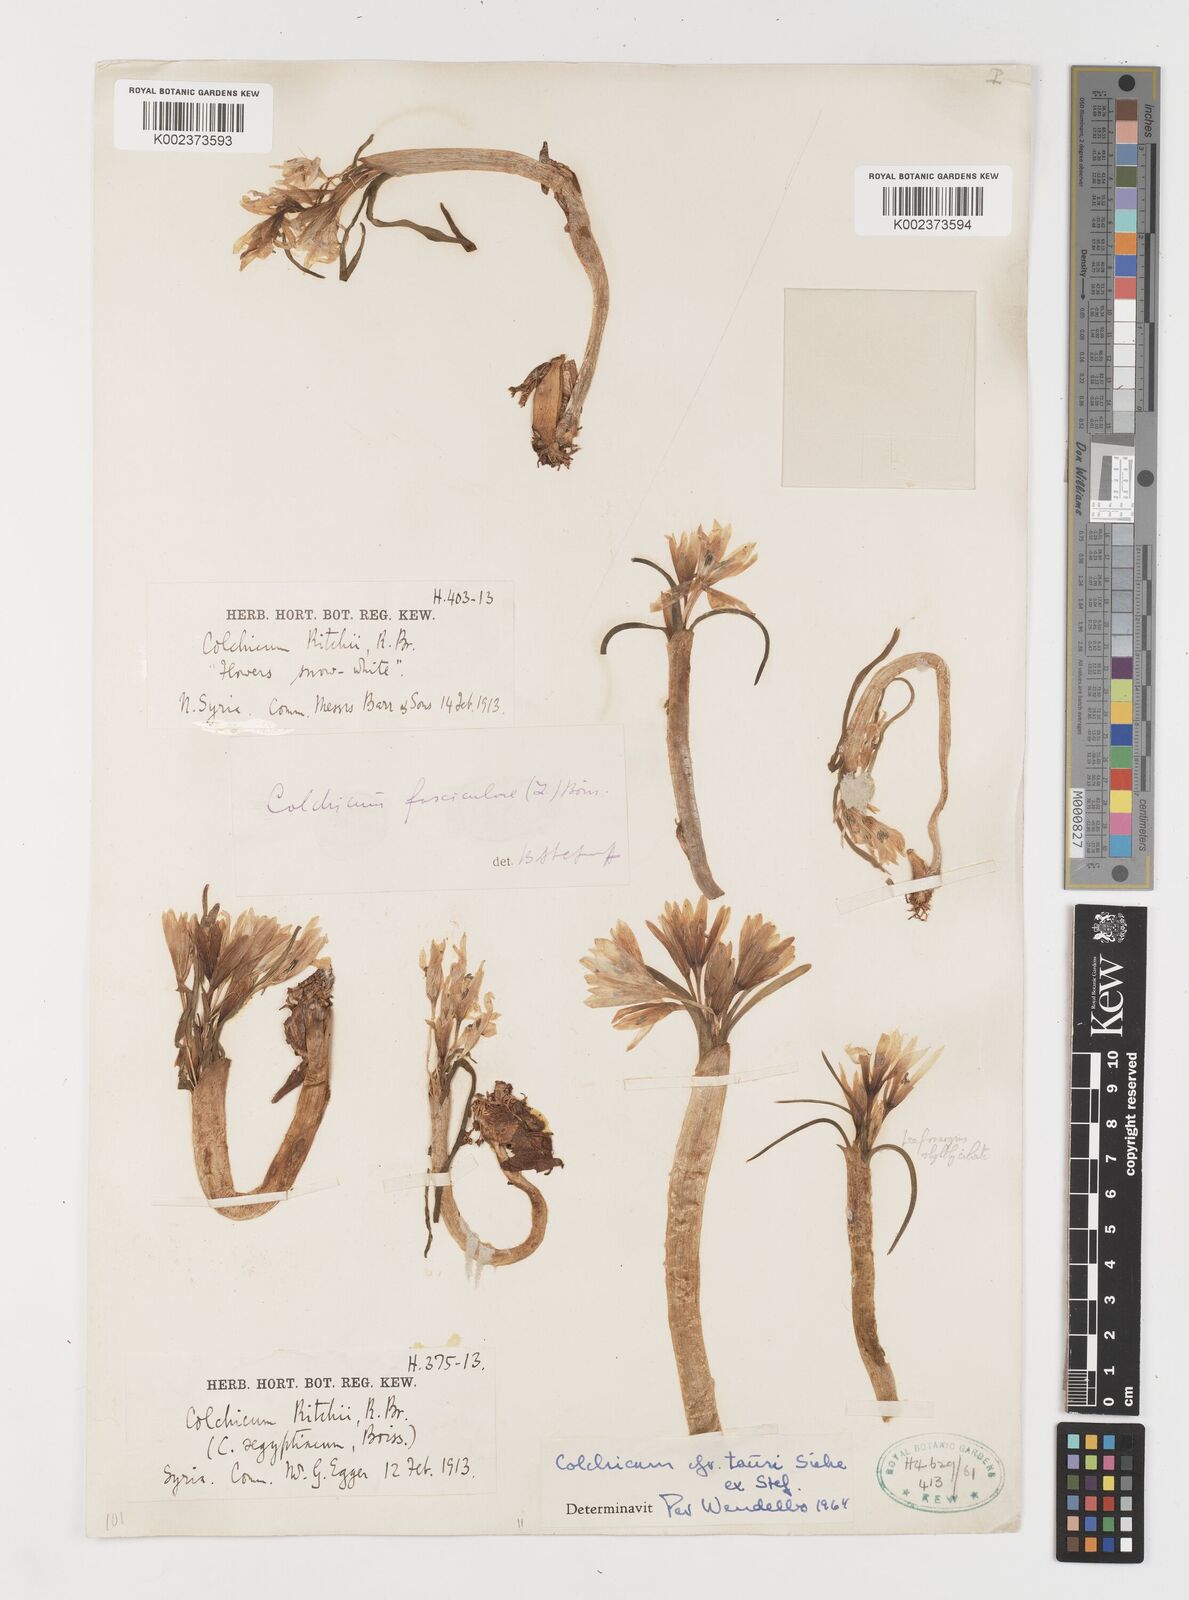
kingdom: Plantae
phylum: Tracheophyta
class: Liliopsida
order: Liliales
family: Colchicaceae
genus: Colchicum
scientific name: Colchicum serpentinum
